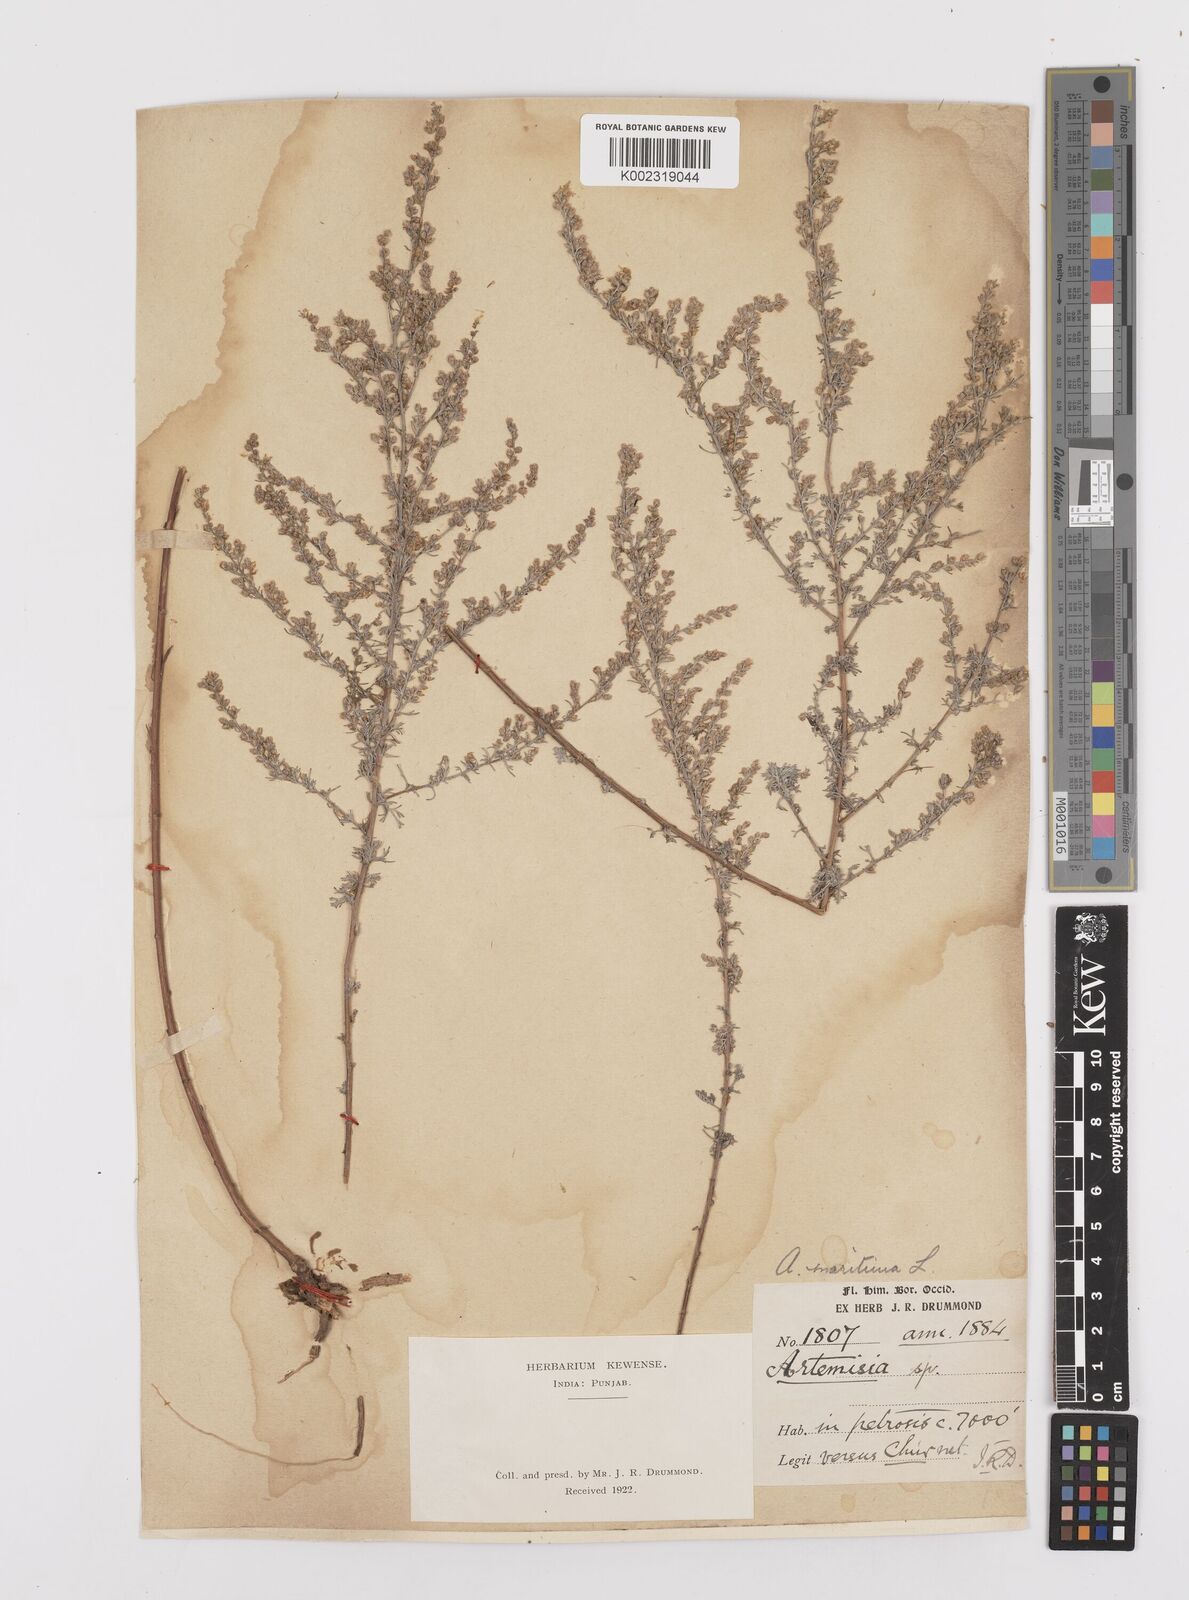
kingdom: Plantae
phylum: Tracheophyta
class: Magnoliopsida
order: Asterales
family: Asteraceae
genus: Artemisia
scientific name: Artemisia brevifolia
